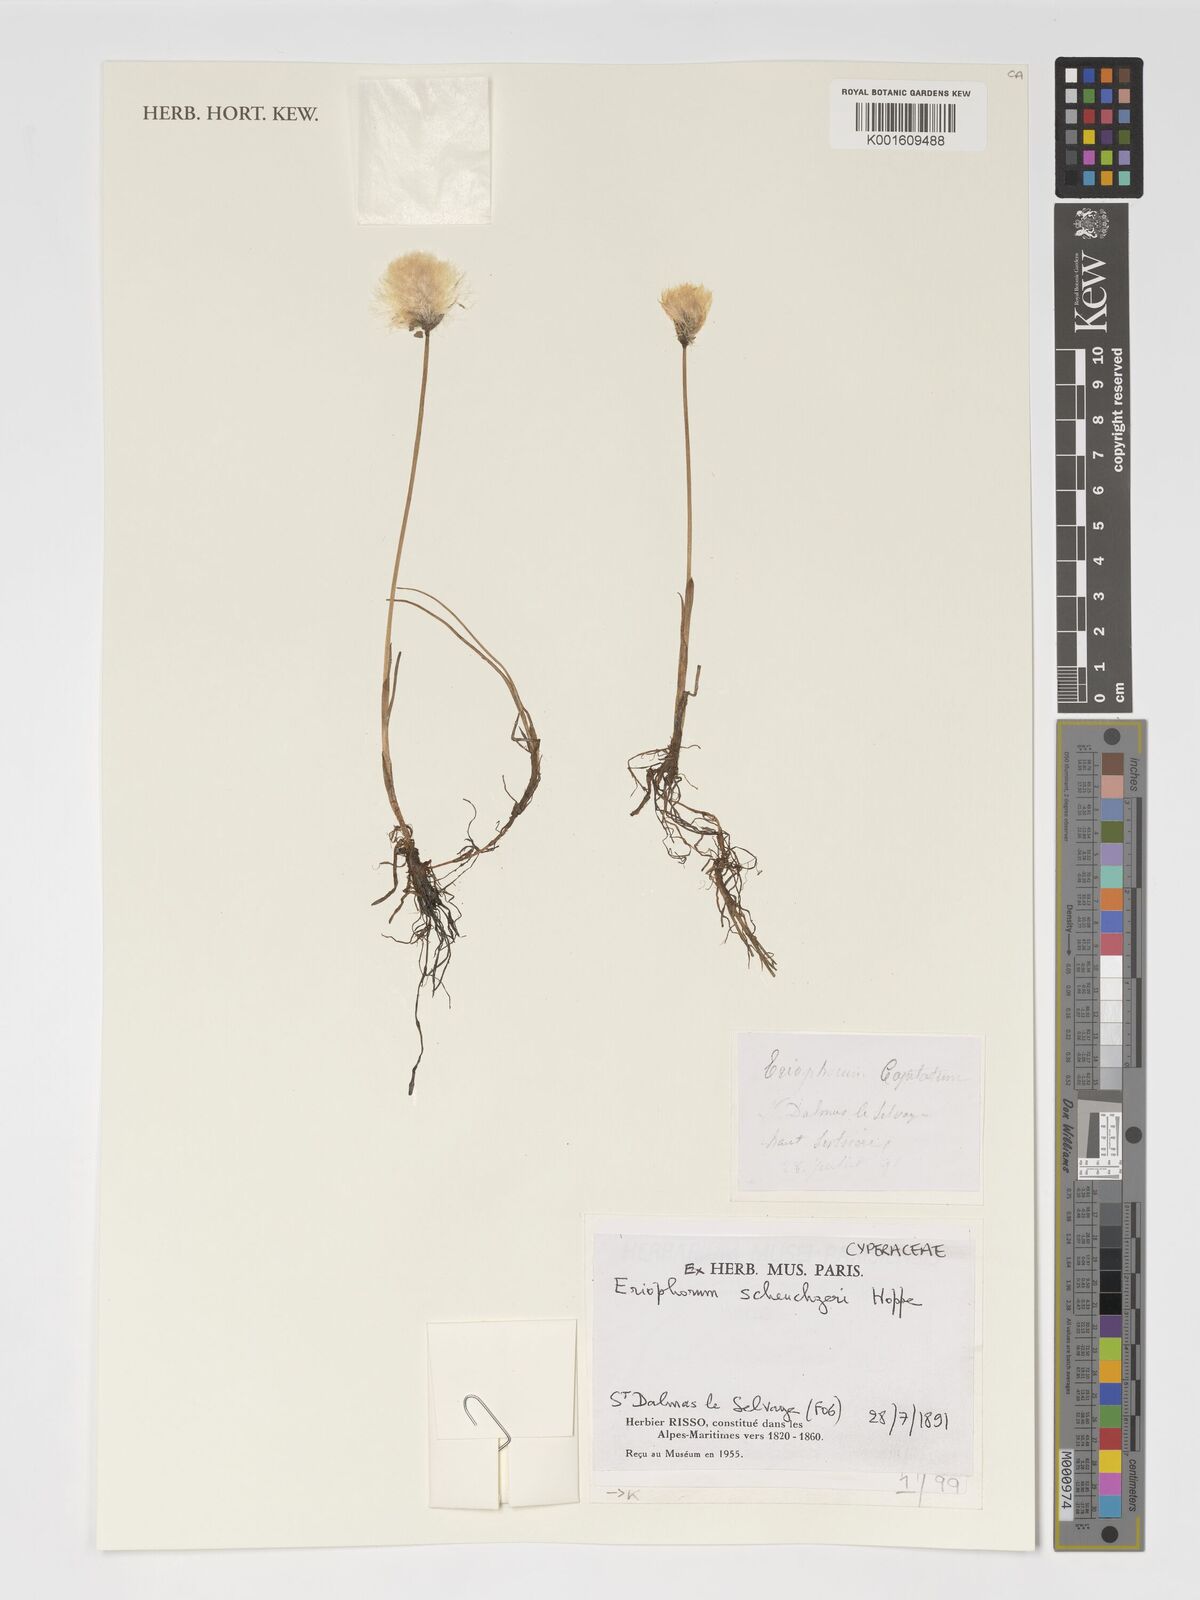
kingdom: Plantae
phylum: Tracheophyta
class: Liliopsida
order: Poales
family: Cyperaceae
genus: Eriophorum
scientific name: Eriophorum scheuchzeri
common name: Scheuchzer's cottongrass
